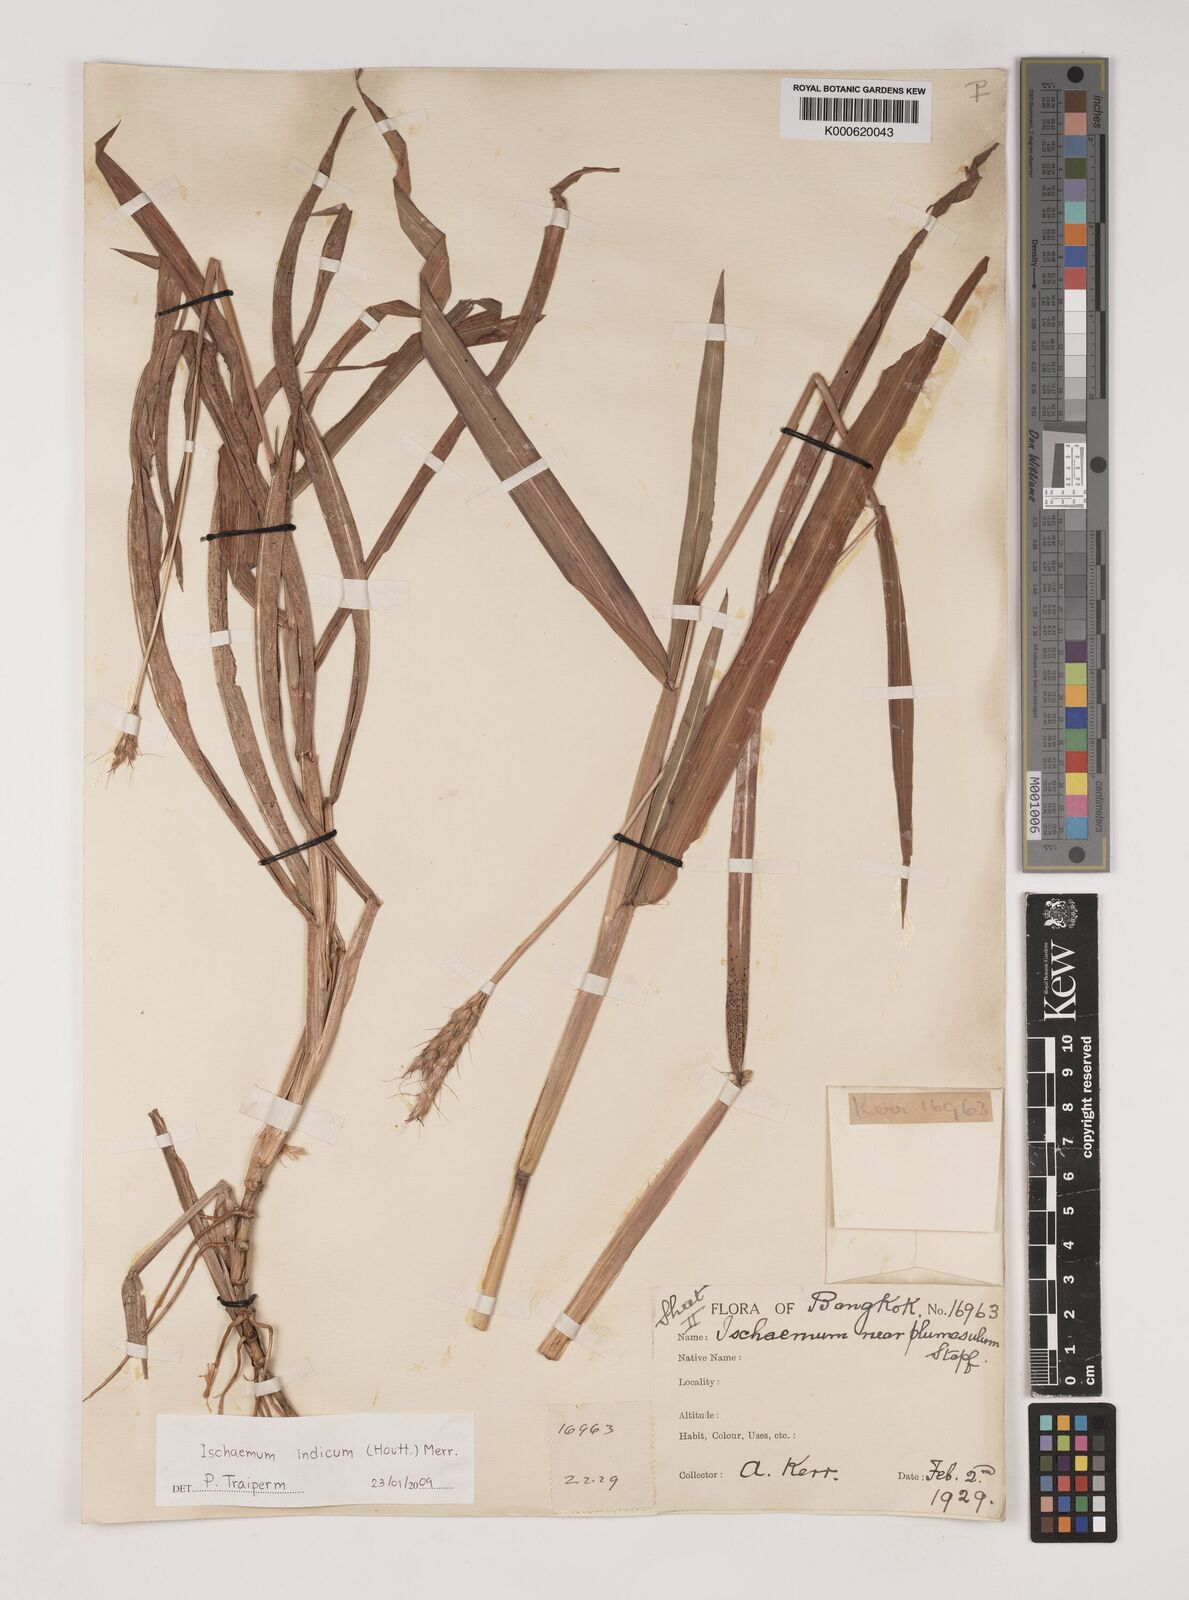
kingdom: Plantae
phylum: Tracheophyta
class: Liliopsida
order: Poales
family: Poaceae
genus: Polytrias
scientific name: Polytrias indica
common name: Indian murainagrass
